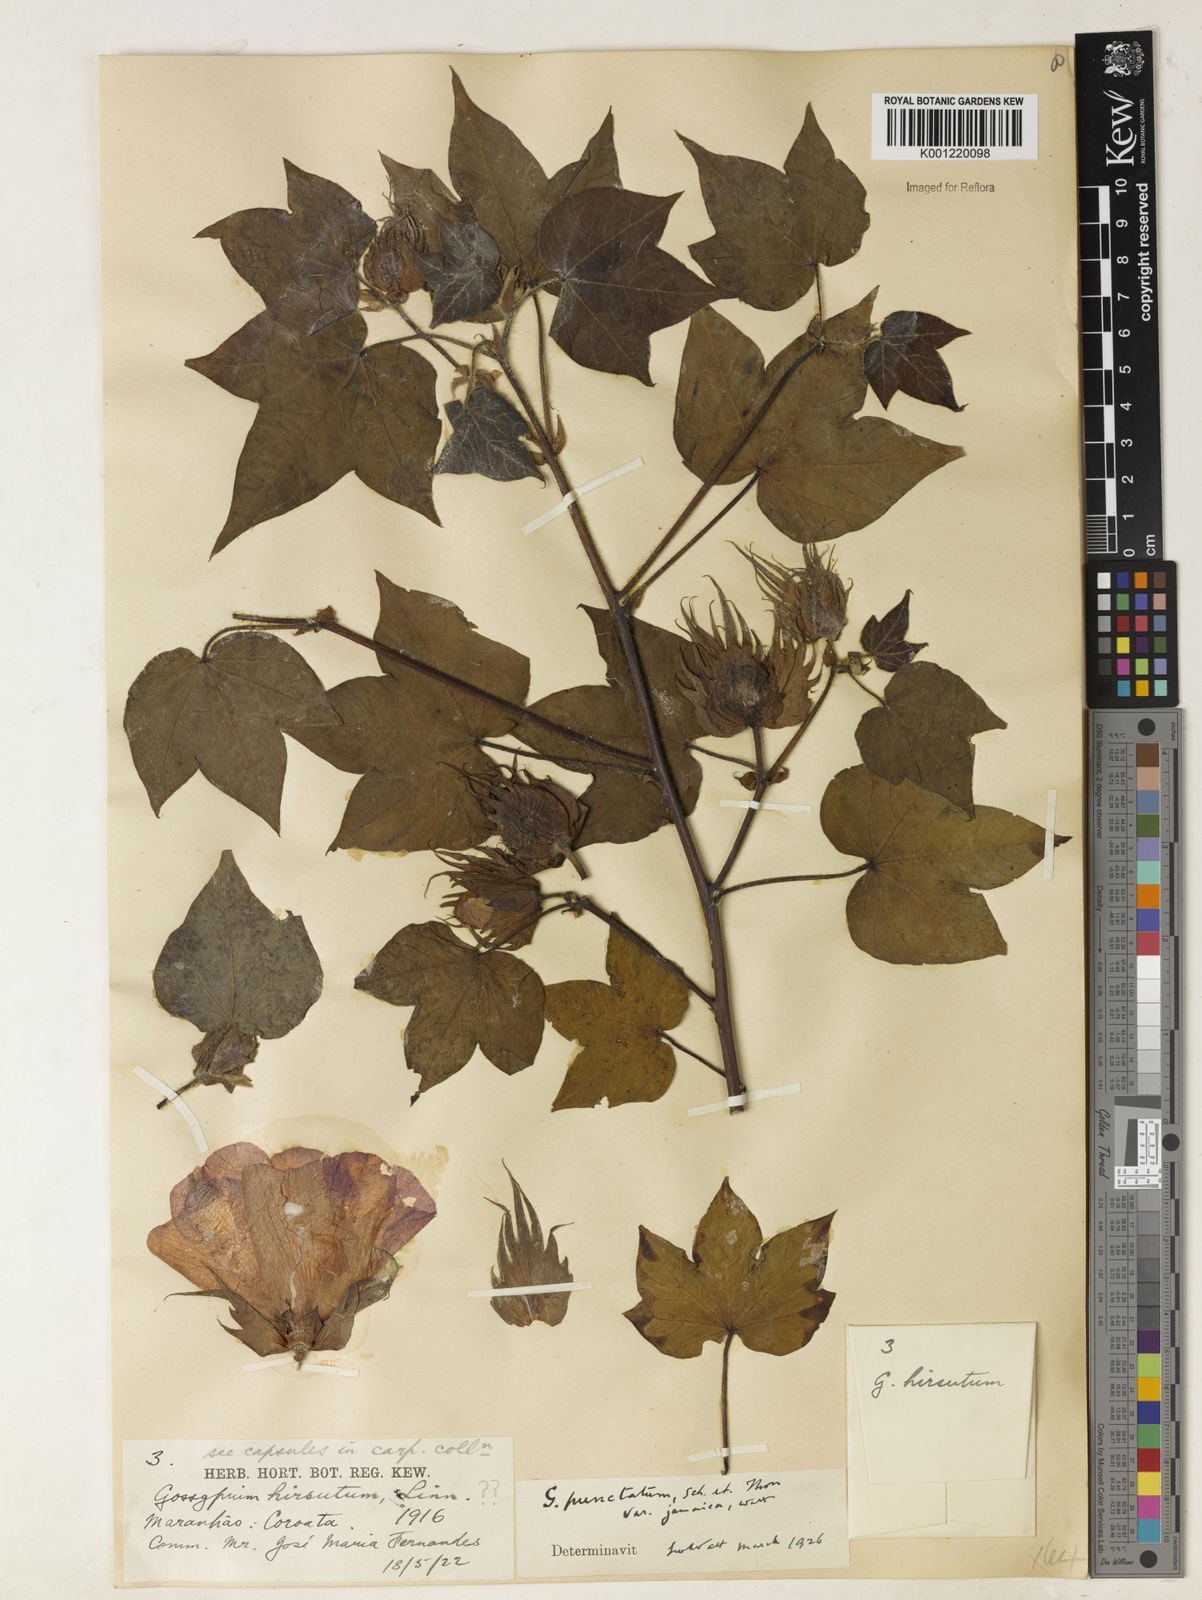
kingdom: Plantae
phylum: Tracheophyta
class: Magnoliopsida
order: Malvales
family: Malvaceae
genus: Gossypium
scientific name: Gossypium hirsutum
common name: Cotton
